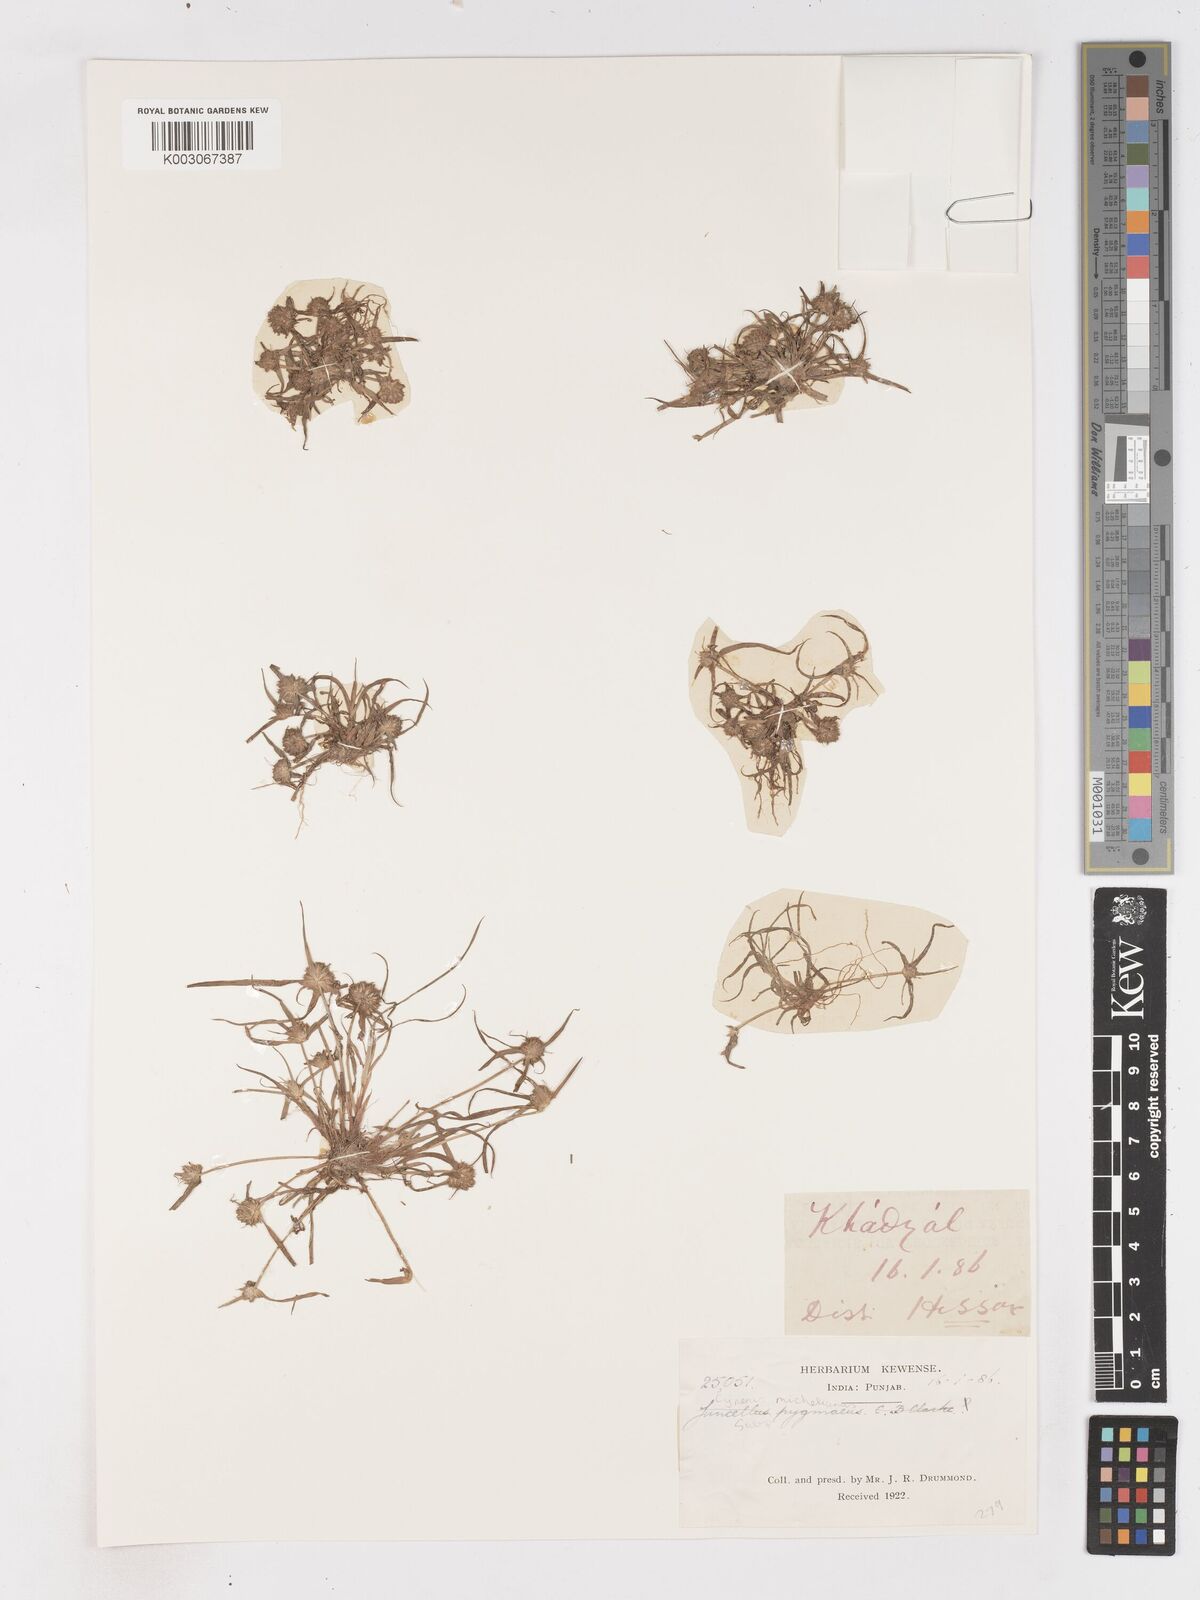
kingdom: Plantae
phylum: Tracheophyta
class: Liliopsida
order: Poales
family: Cyperaceae
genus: Cyperus
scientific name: Cyperus michelianus
